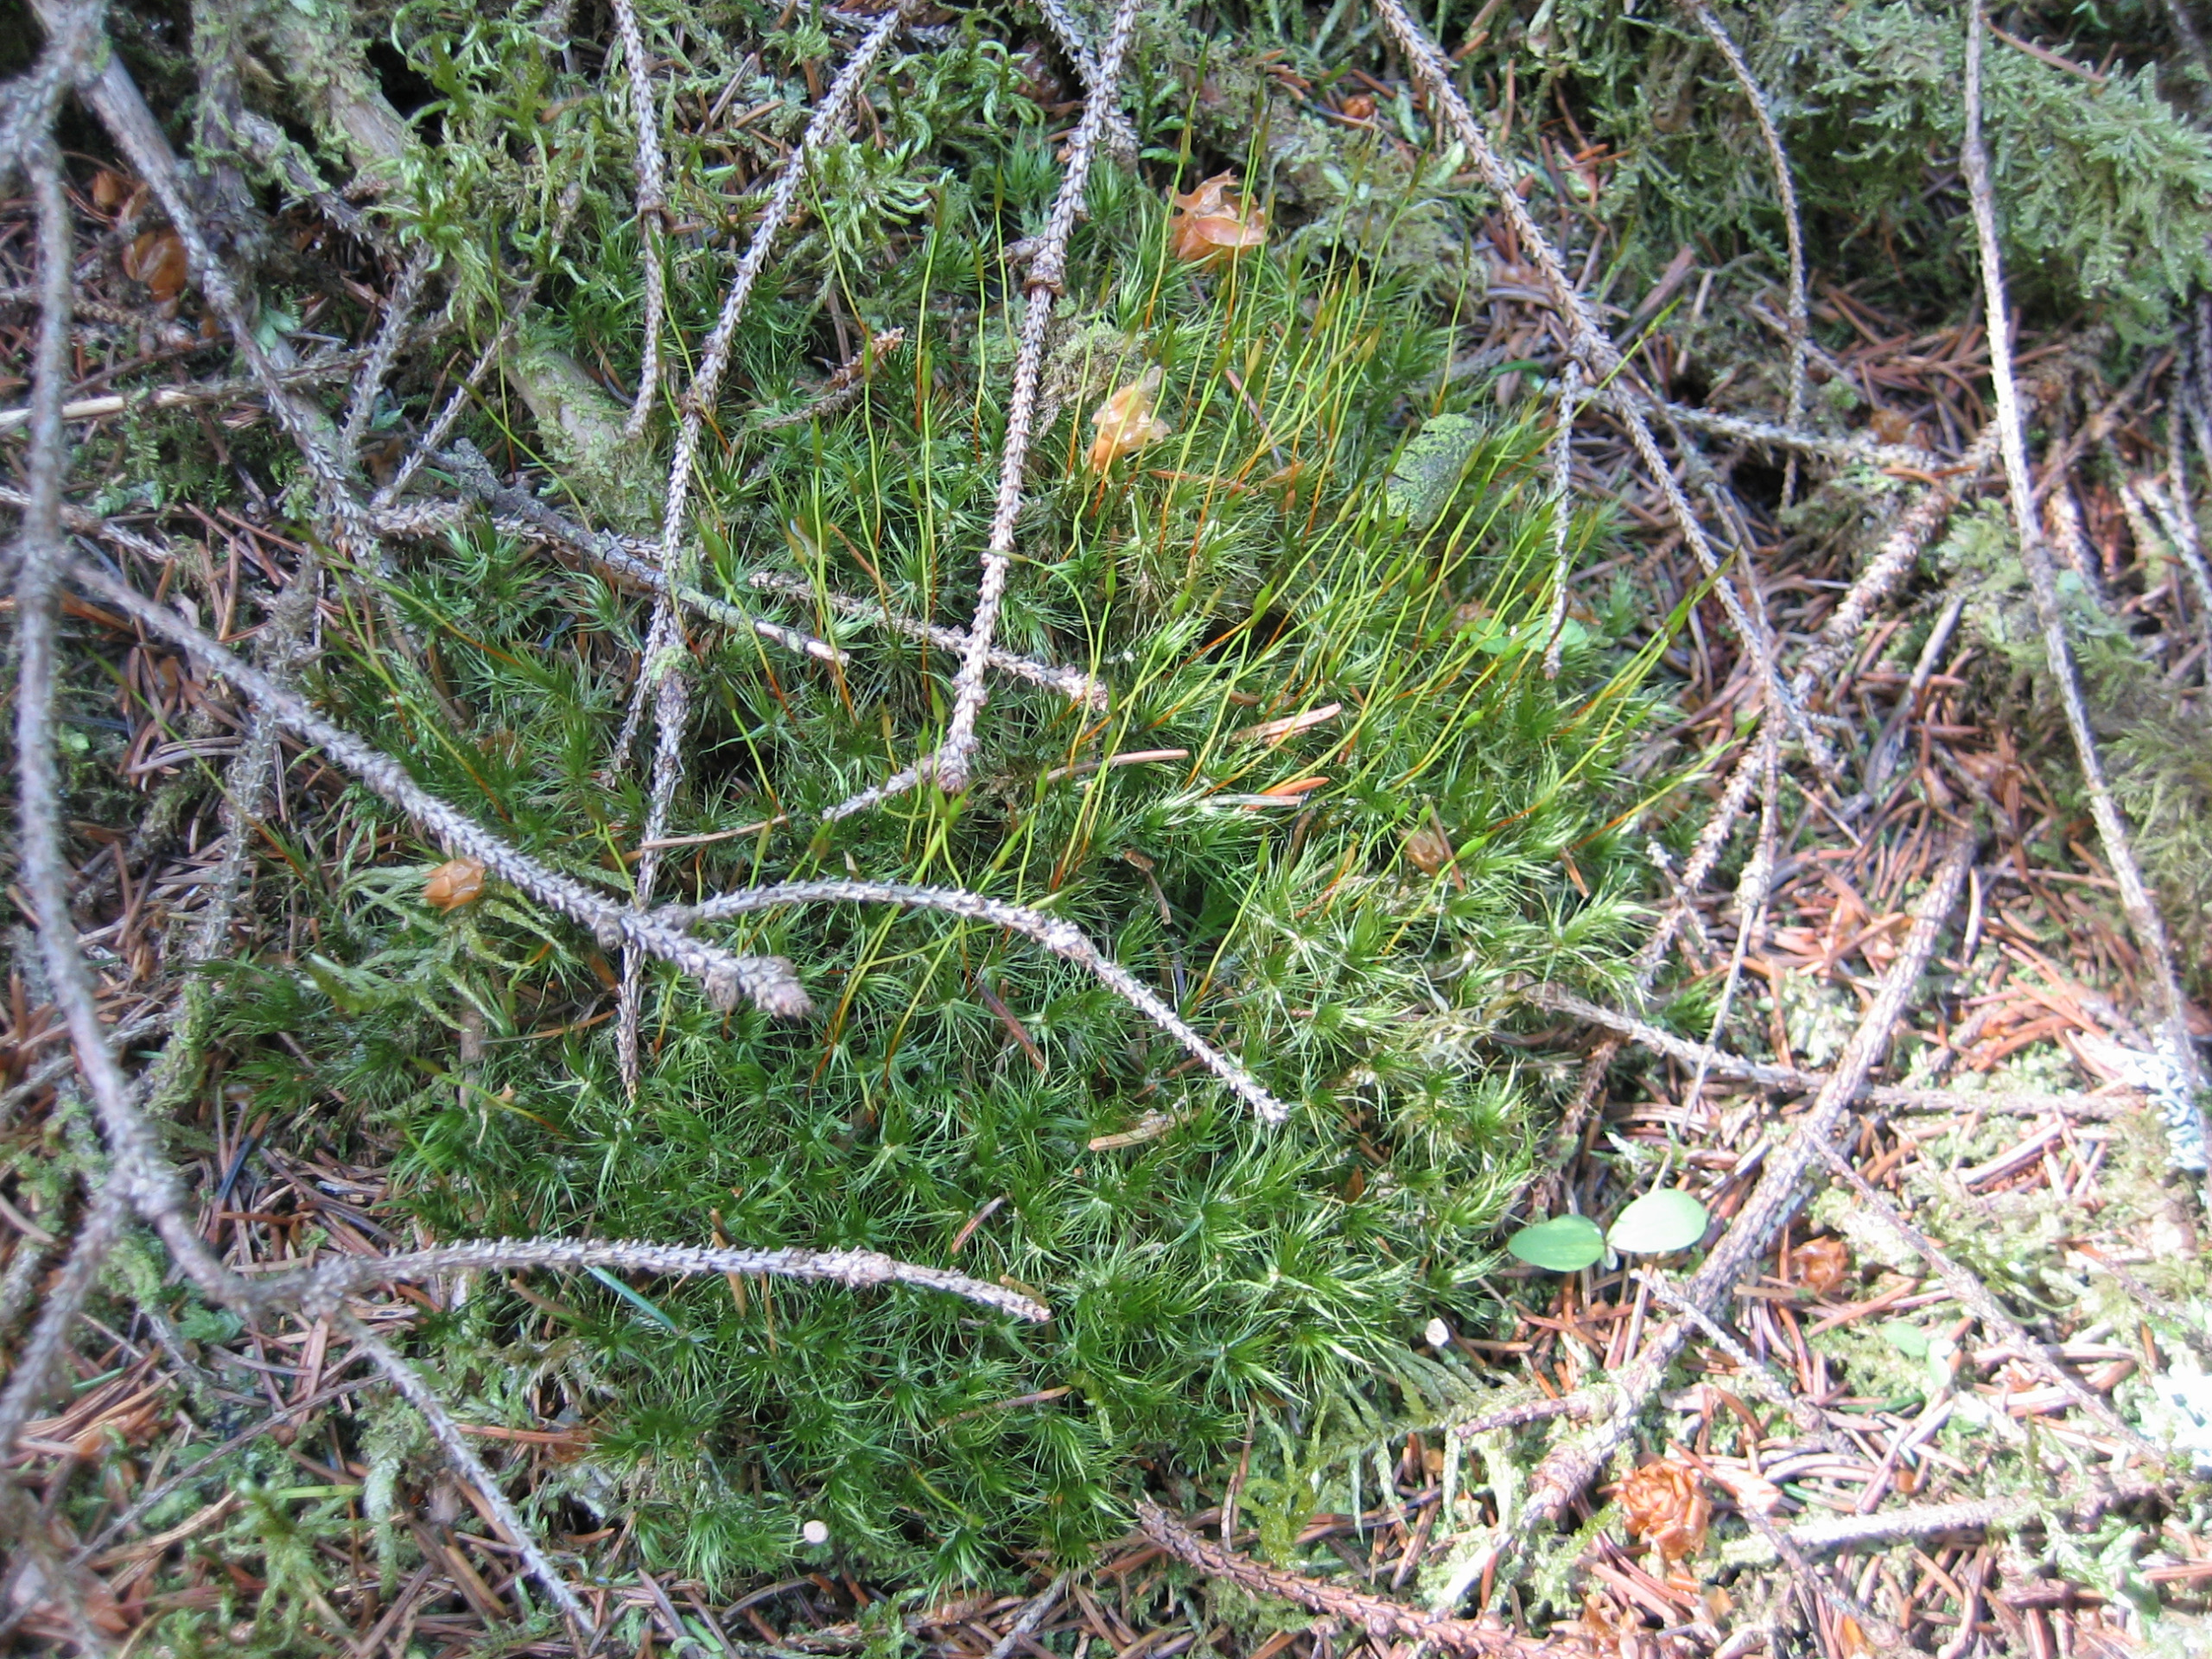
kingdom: Plantae
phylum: Bryophyta
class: Bryopsida
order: Dicranales
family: Dicranaceae
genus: Dicranum
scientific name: Dicranum scoparium
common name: Almindelig kløvtand
